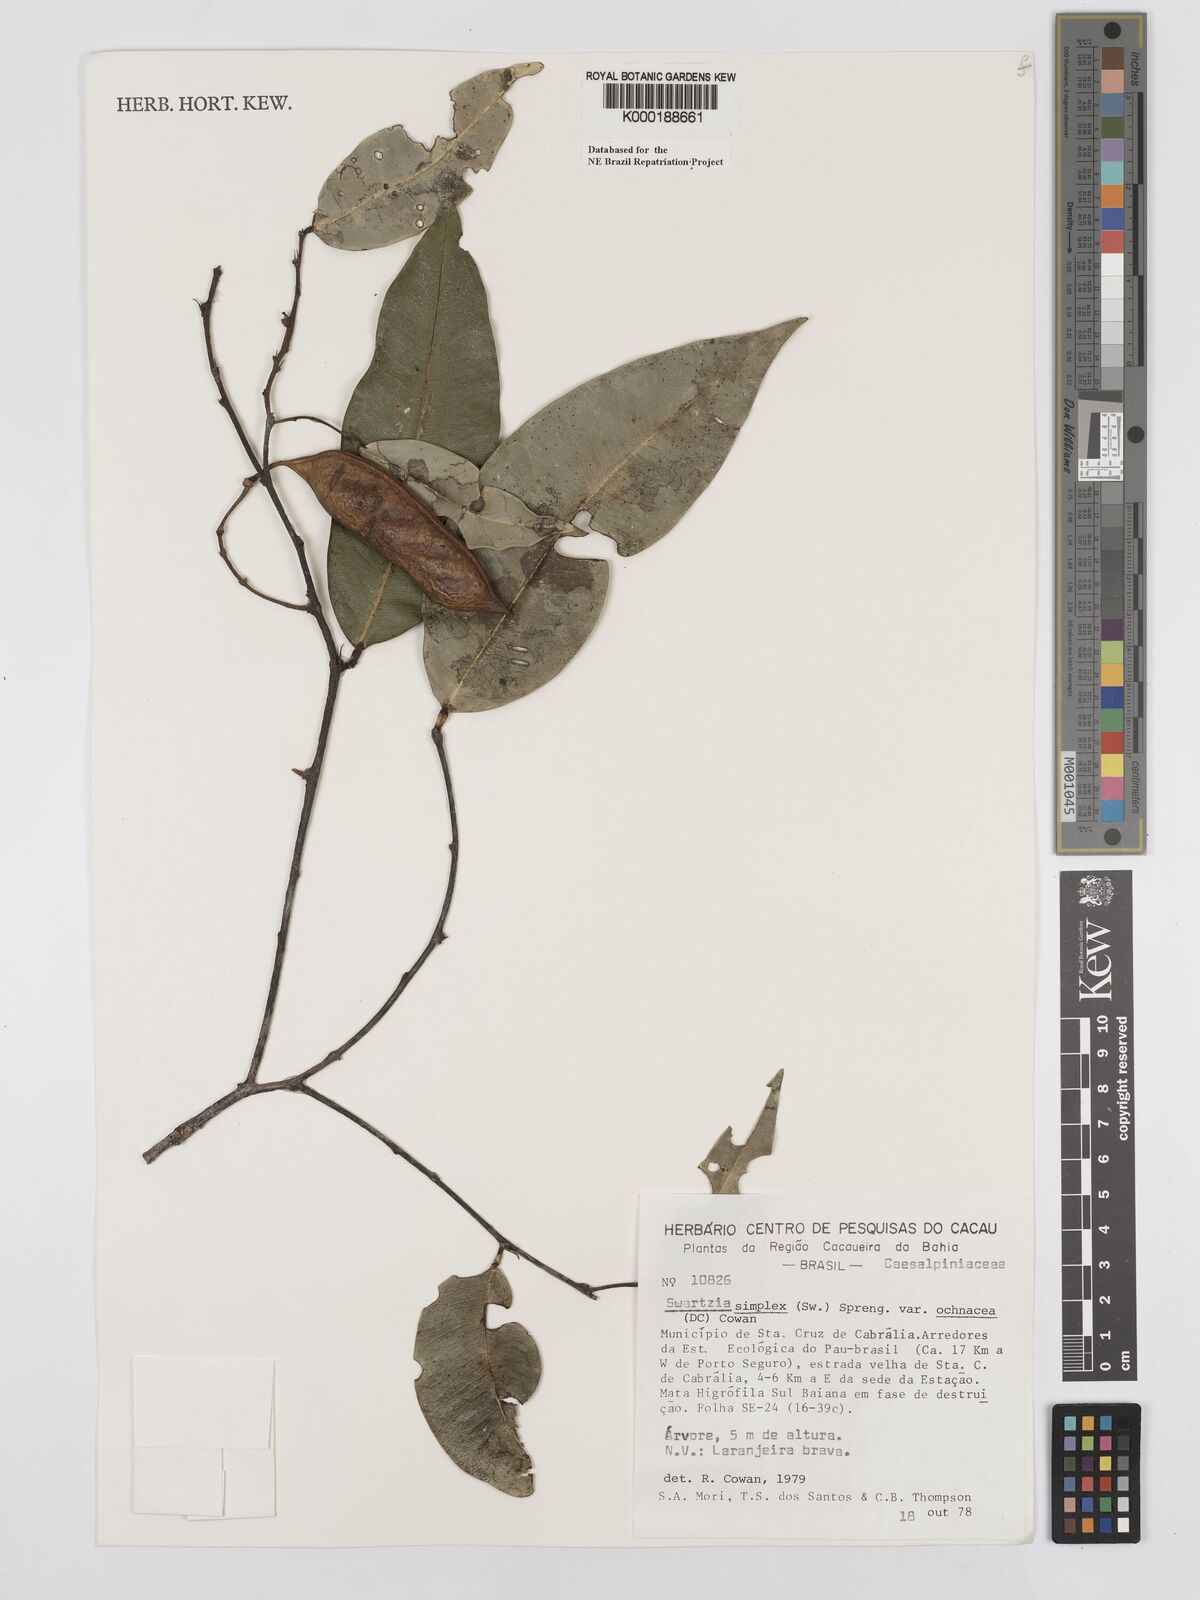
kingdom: Plantae
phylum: Tracheophyta
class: Magnoliopsida
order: Fabales
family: Fabaceae
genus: Swartzia
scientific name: Swartzia simplex
